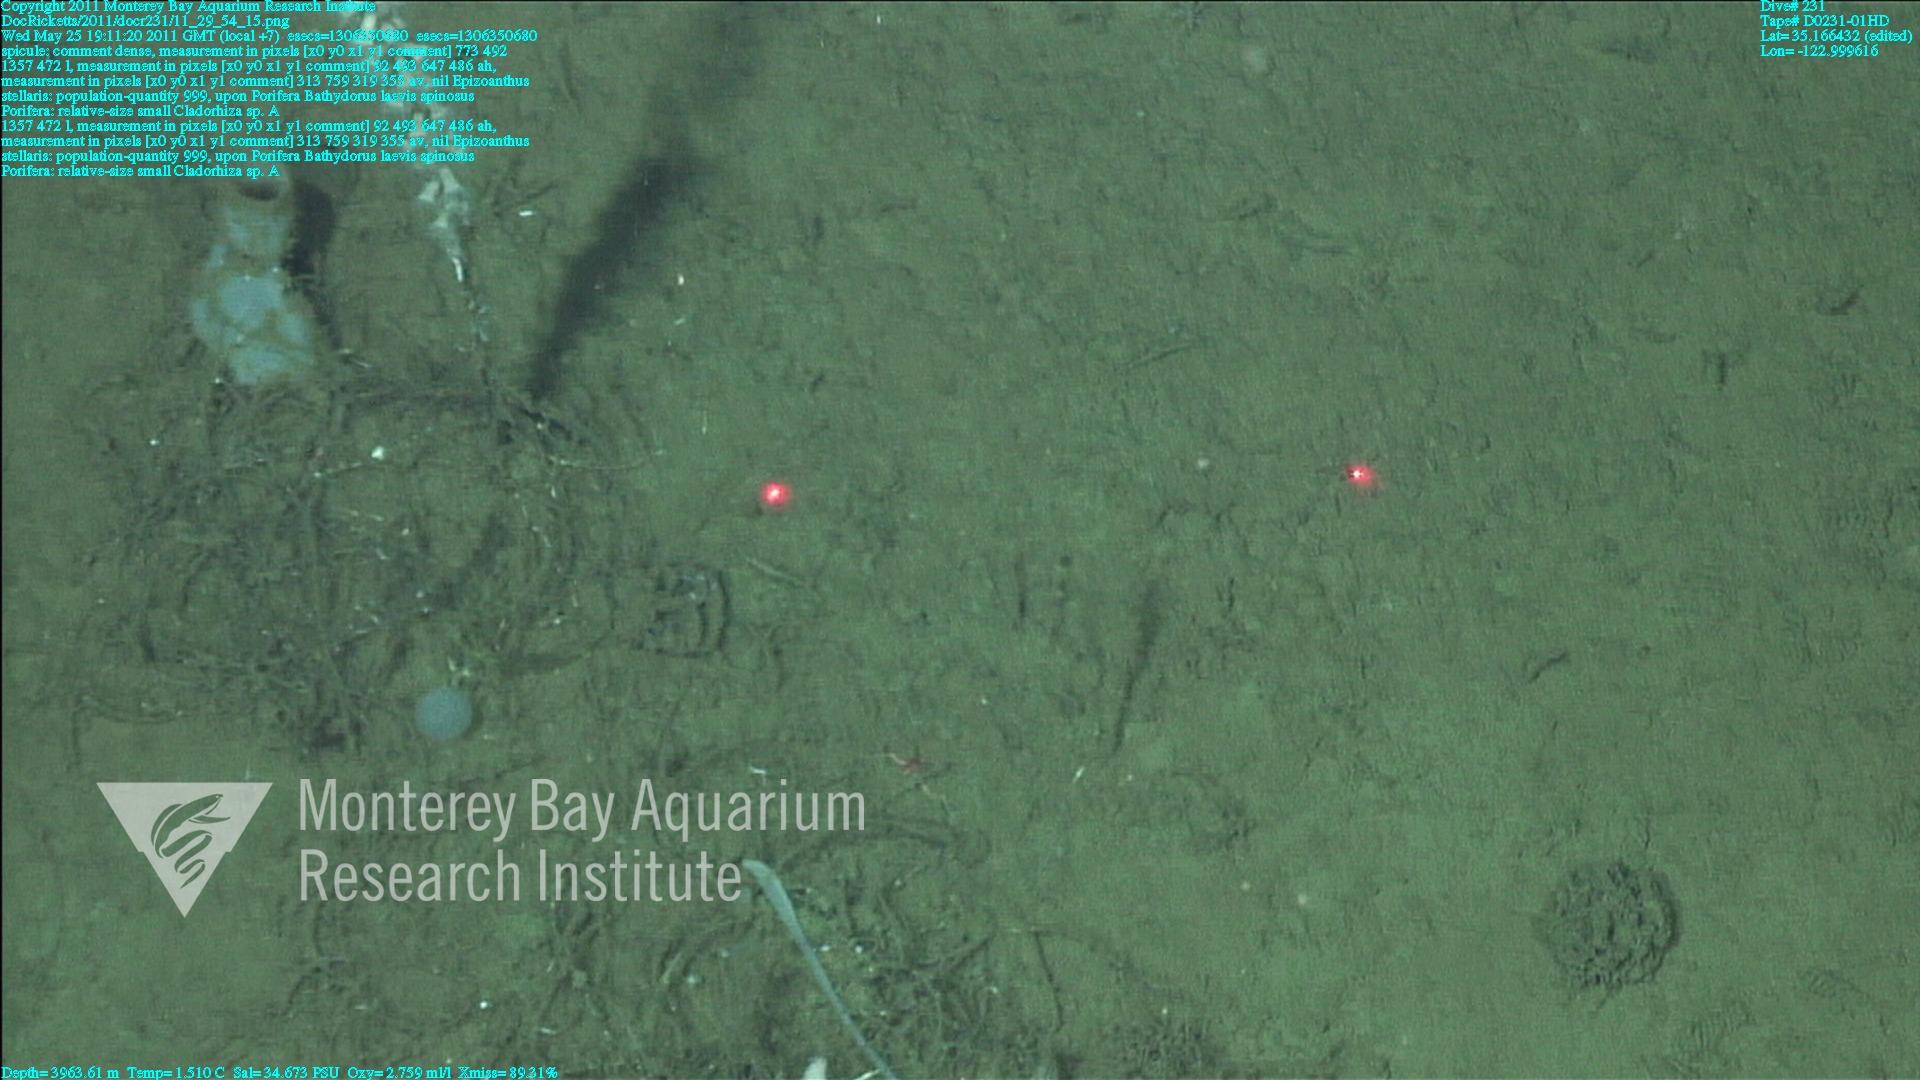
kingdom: Animalia
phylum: Porifera
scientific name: Porifera
